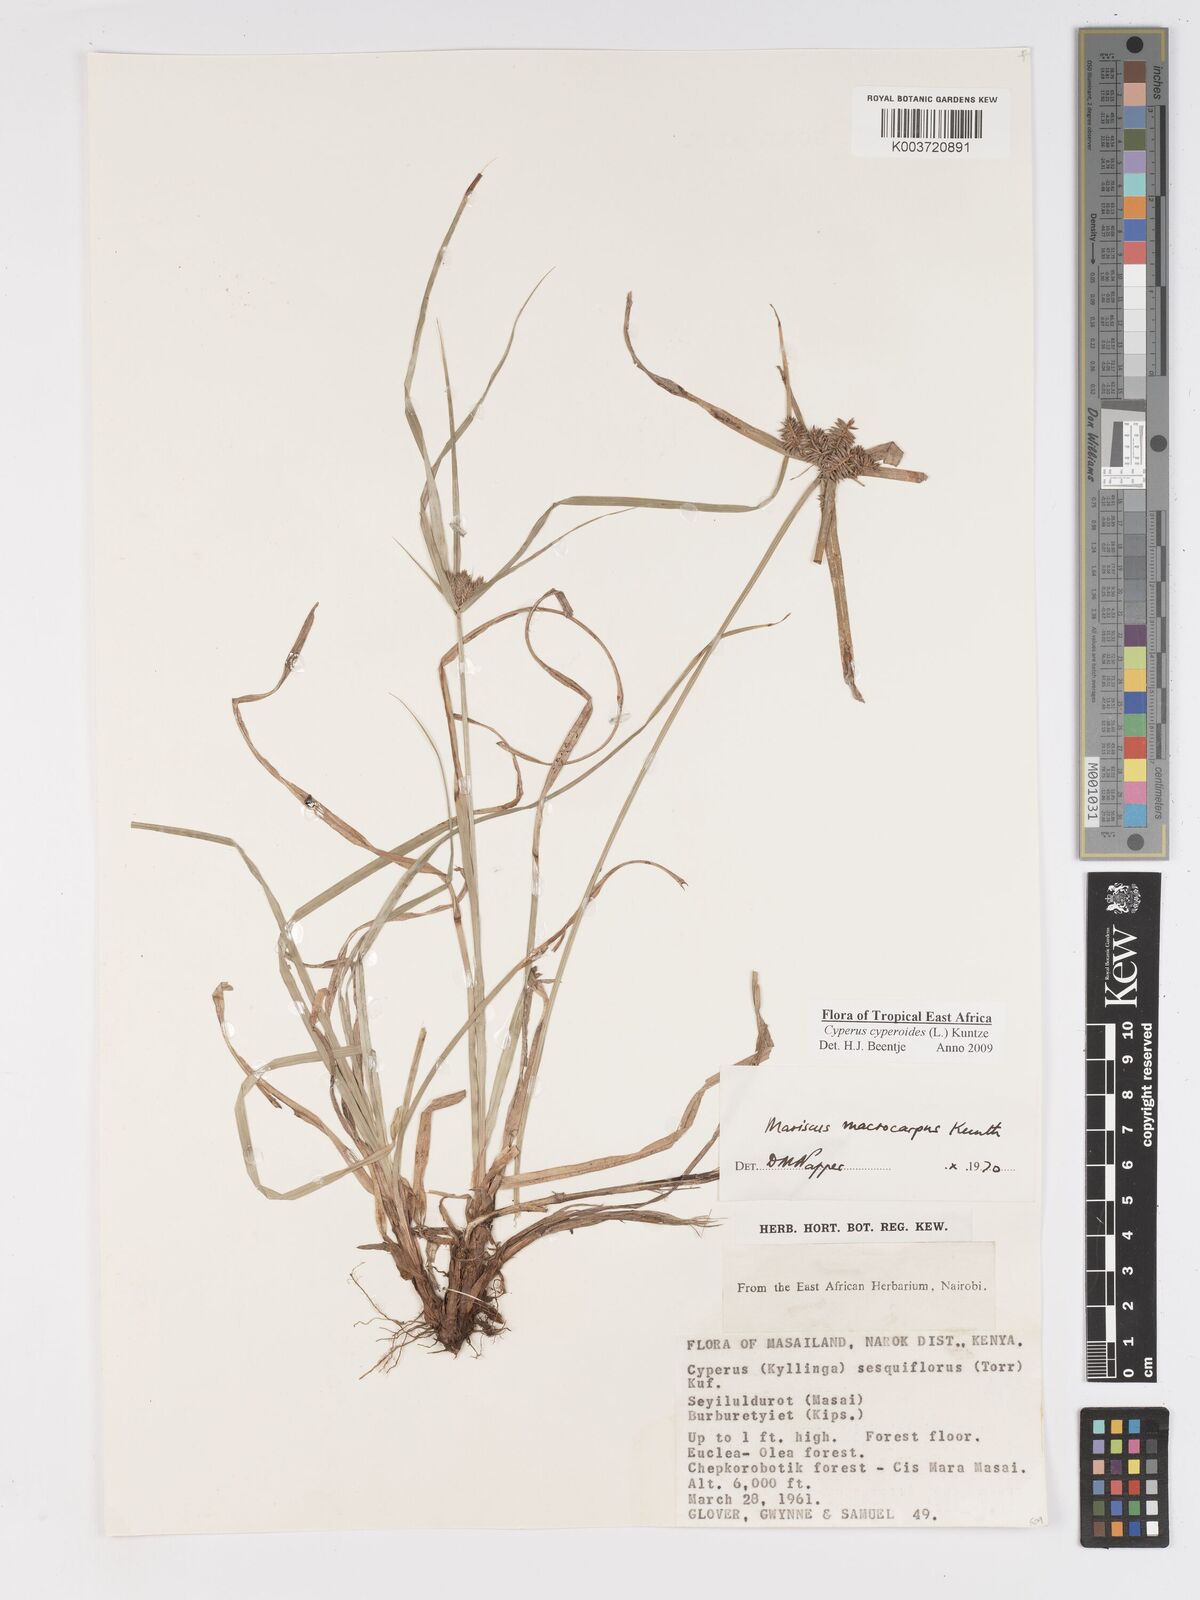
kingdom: Plantae
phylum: Tracheophyta
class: Liliopsida
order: Poales
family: Cyperaceae
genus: Cyperus
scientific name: Cyperus macrocarpus
